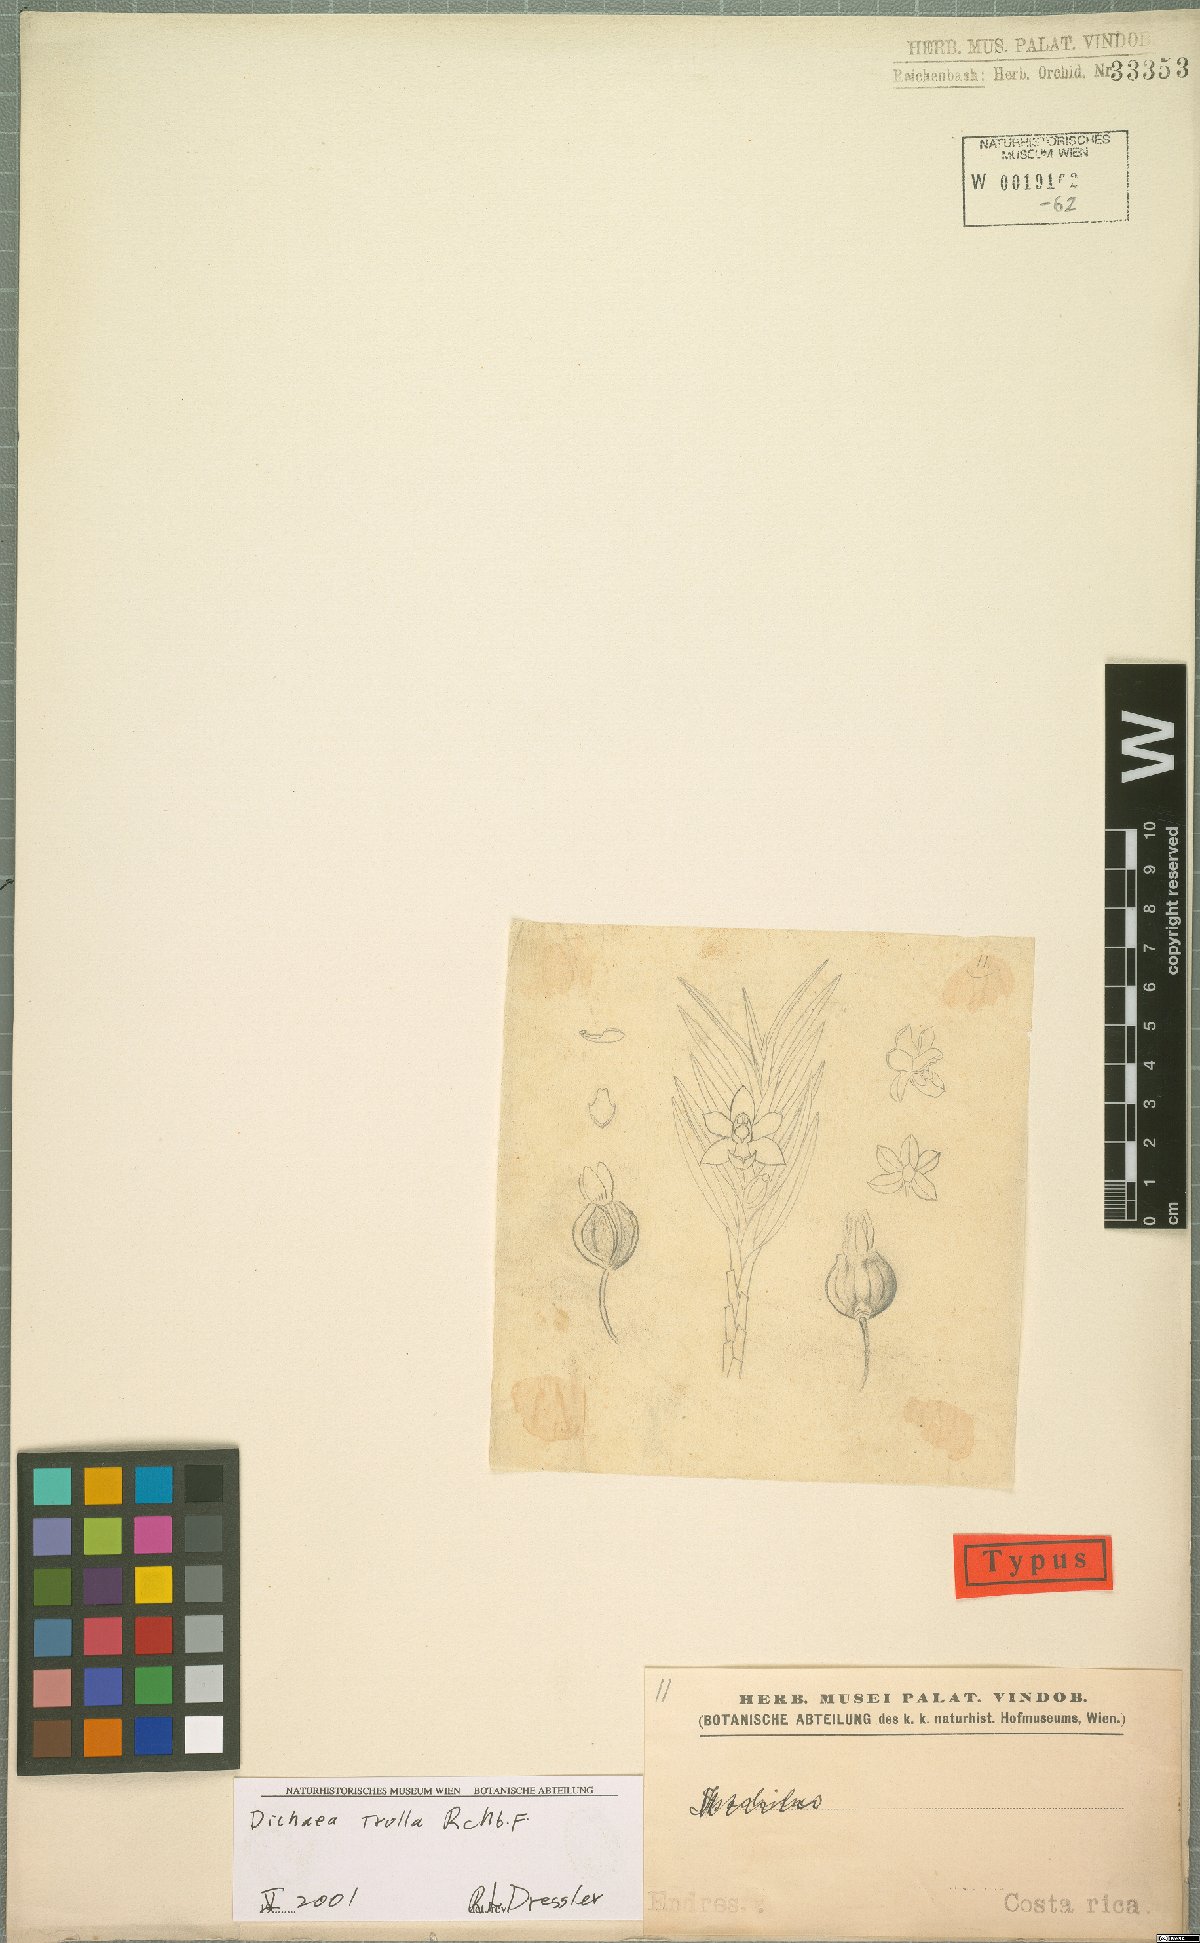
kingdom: Plantae
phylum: Tracheophyta
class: Liliopsida
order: Asparagales
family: Orchidaceae
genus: Dichaea
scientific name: Dichaea trulla
